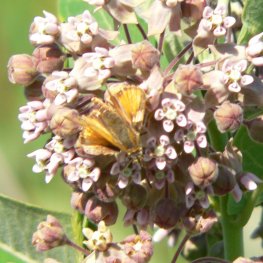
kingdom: Animalia
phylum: Arthropoda
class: Insecta
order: Lepidoptera
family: Hesperiidae
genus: Atrytone
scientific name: Atrytone delaware
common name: Delaware Skipper
